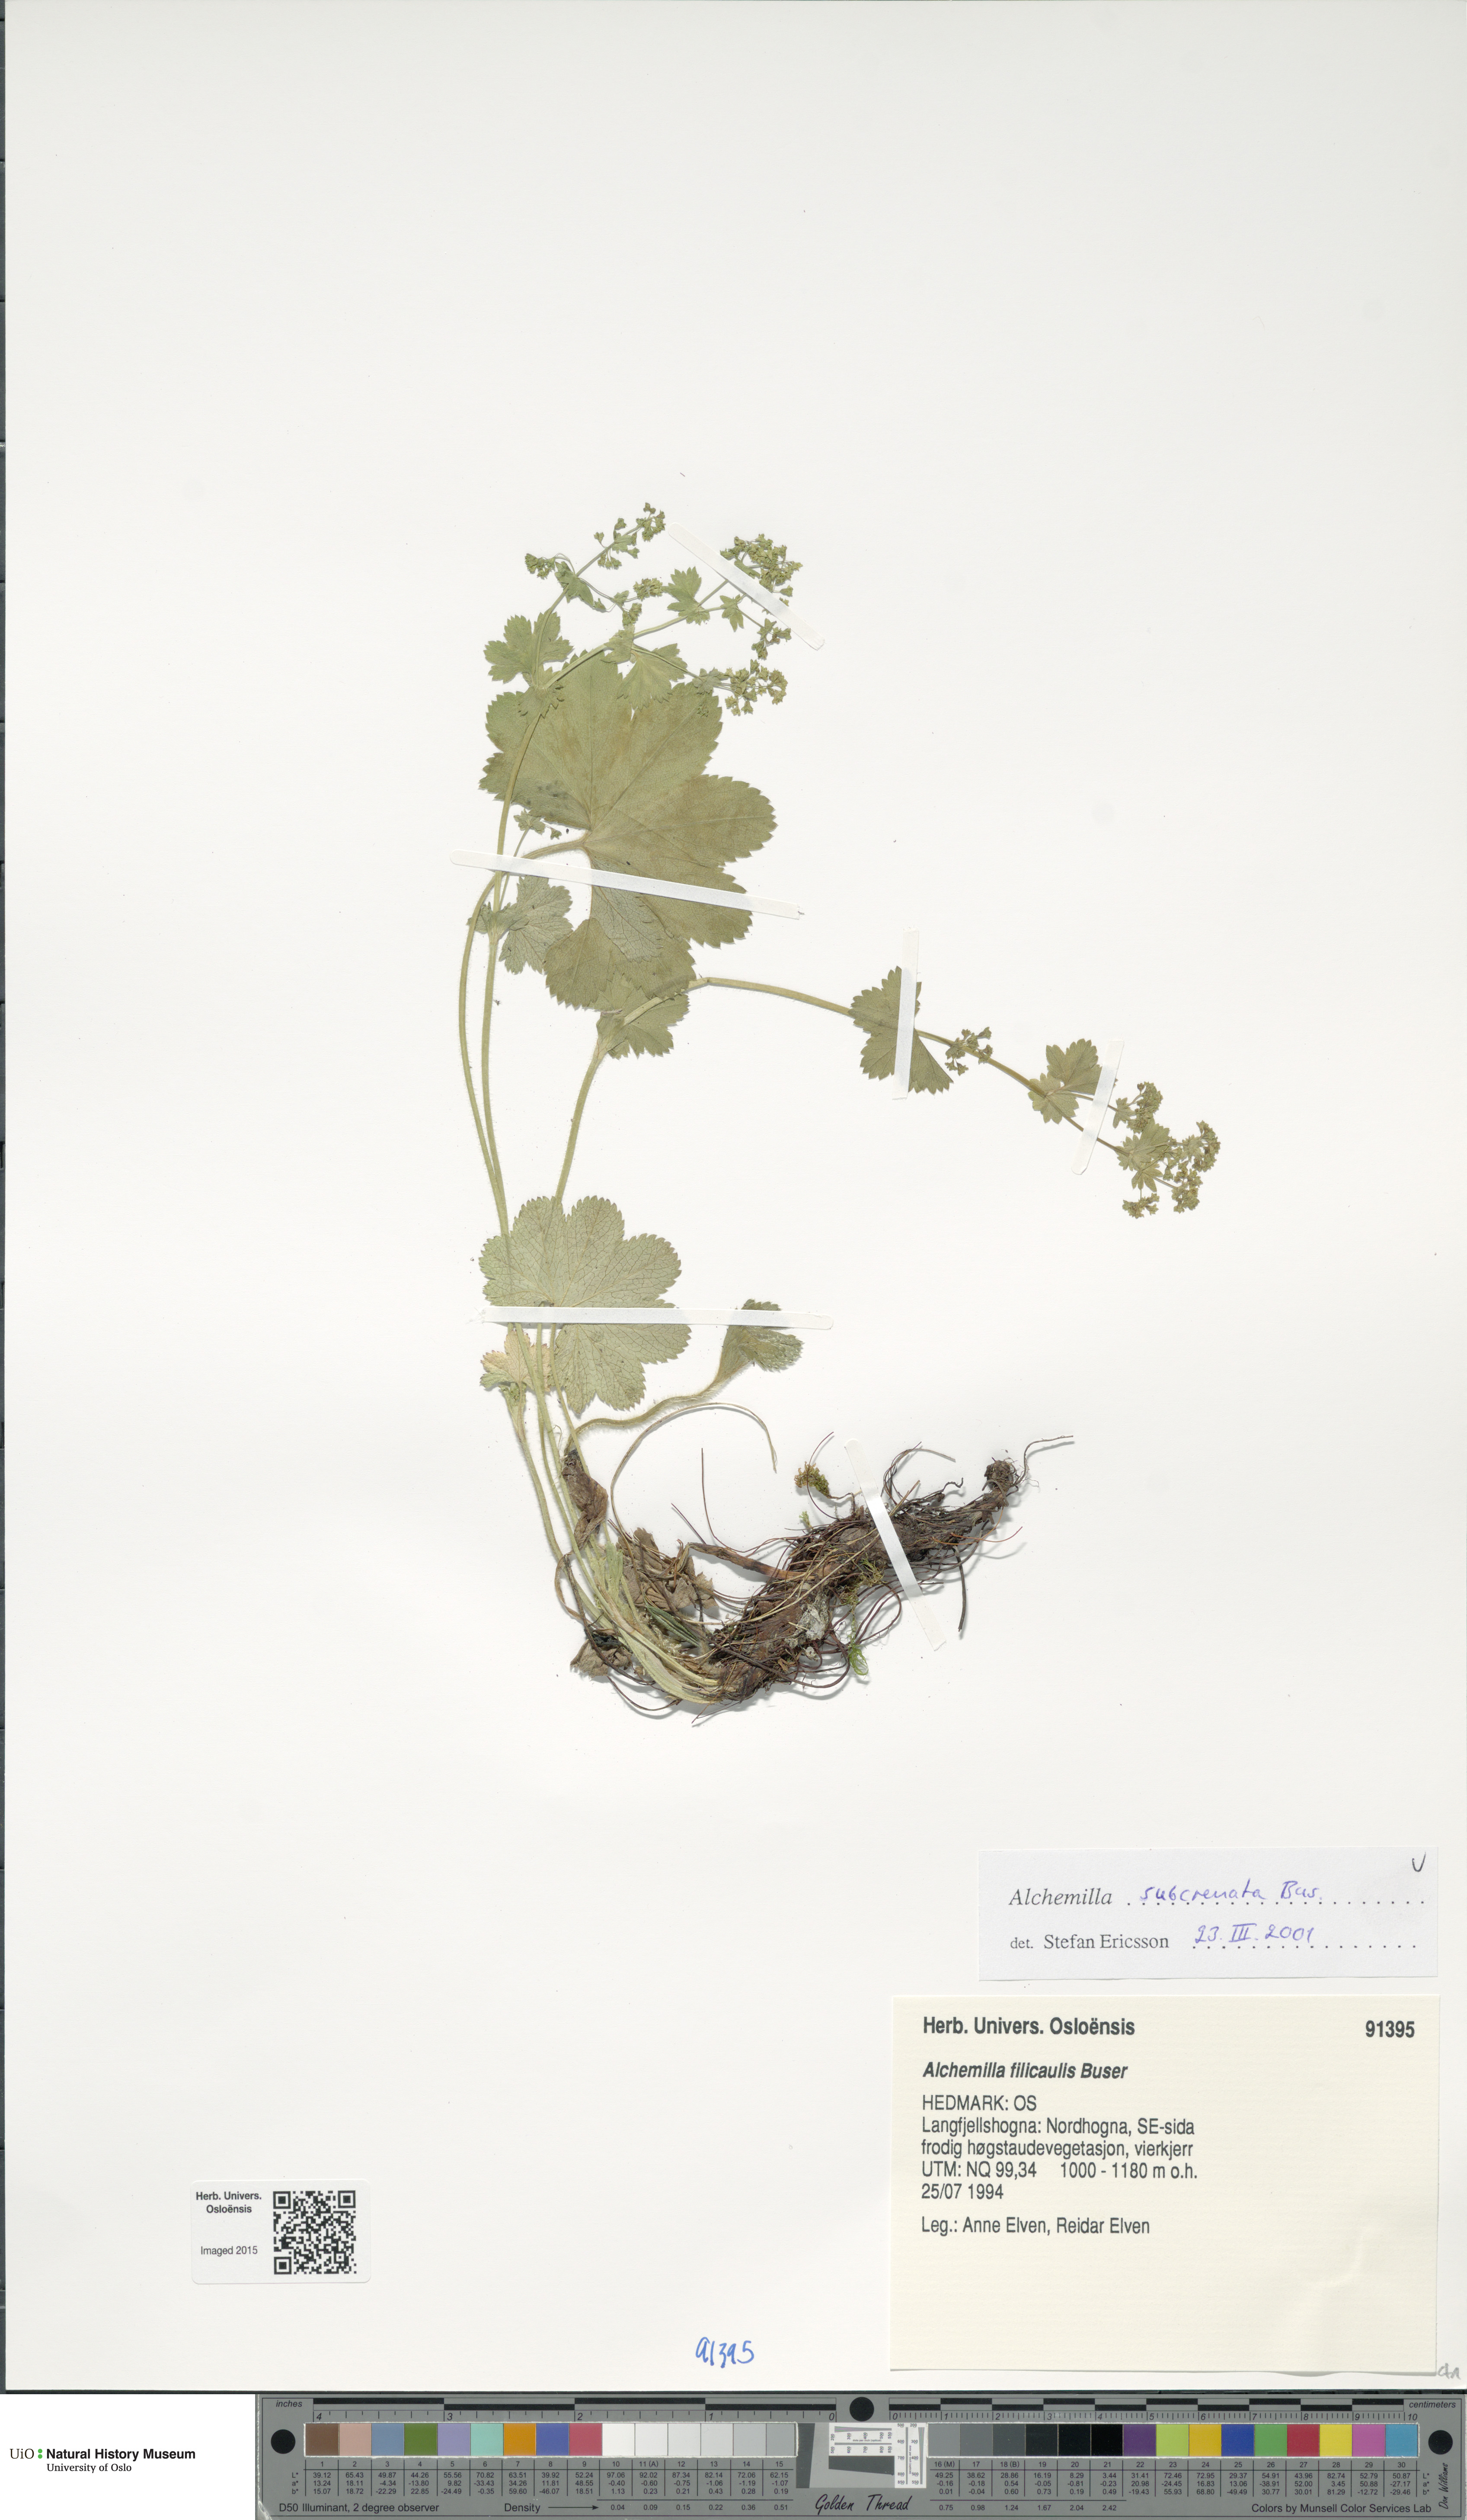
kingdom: Plantae
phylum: Tracheophyta
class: Magnoliopsida
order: Rosales
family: Rosaceae
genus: Alchemilla
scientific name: Alchemilla subcrenata
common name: Broadtooth lady's mantle
